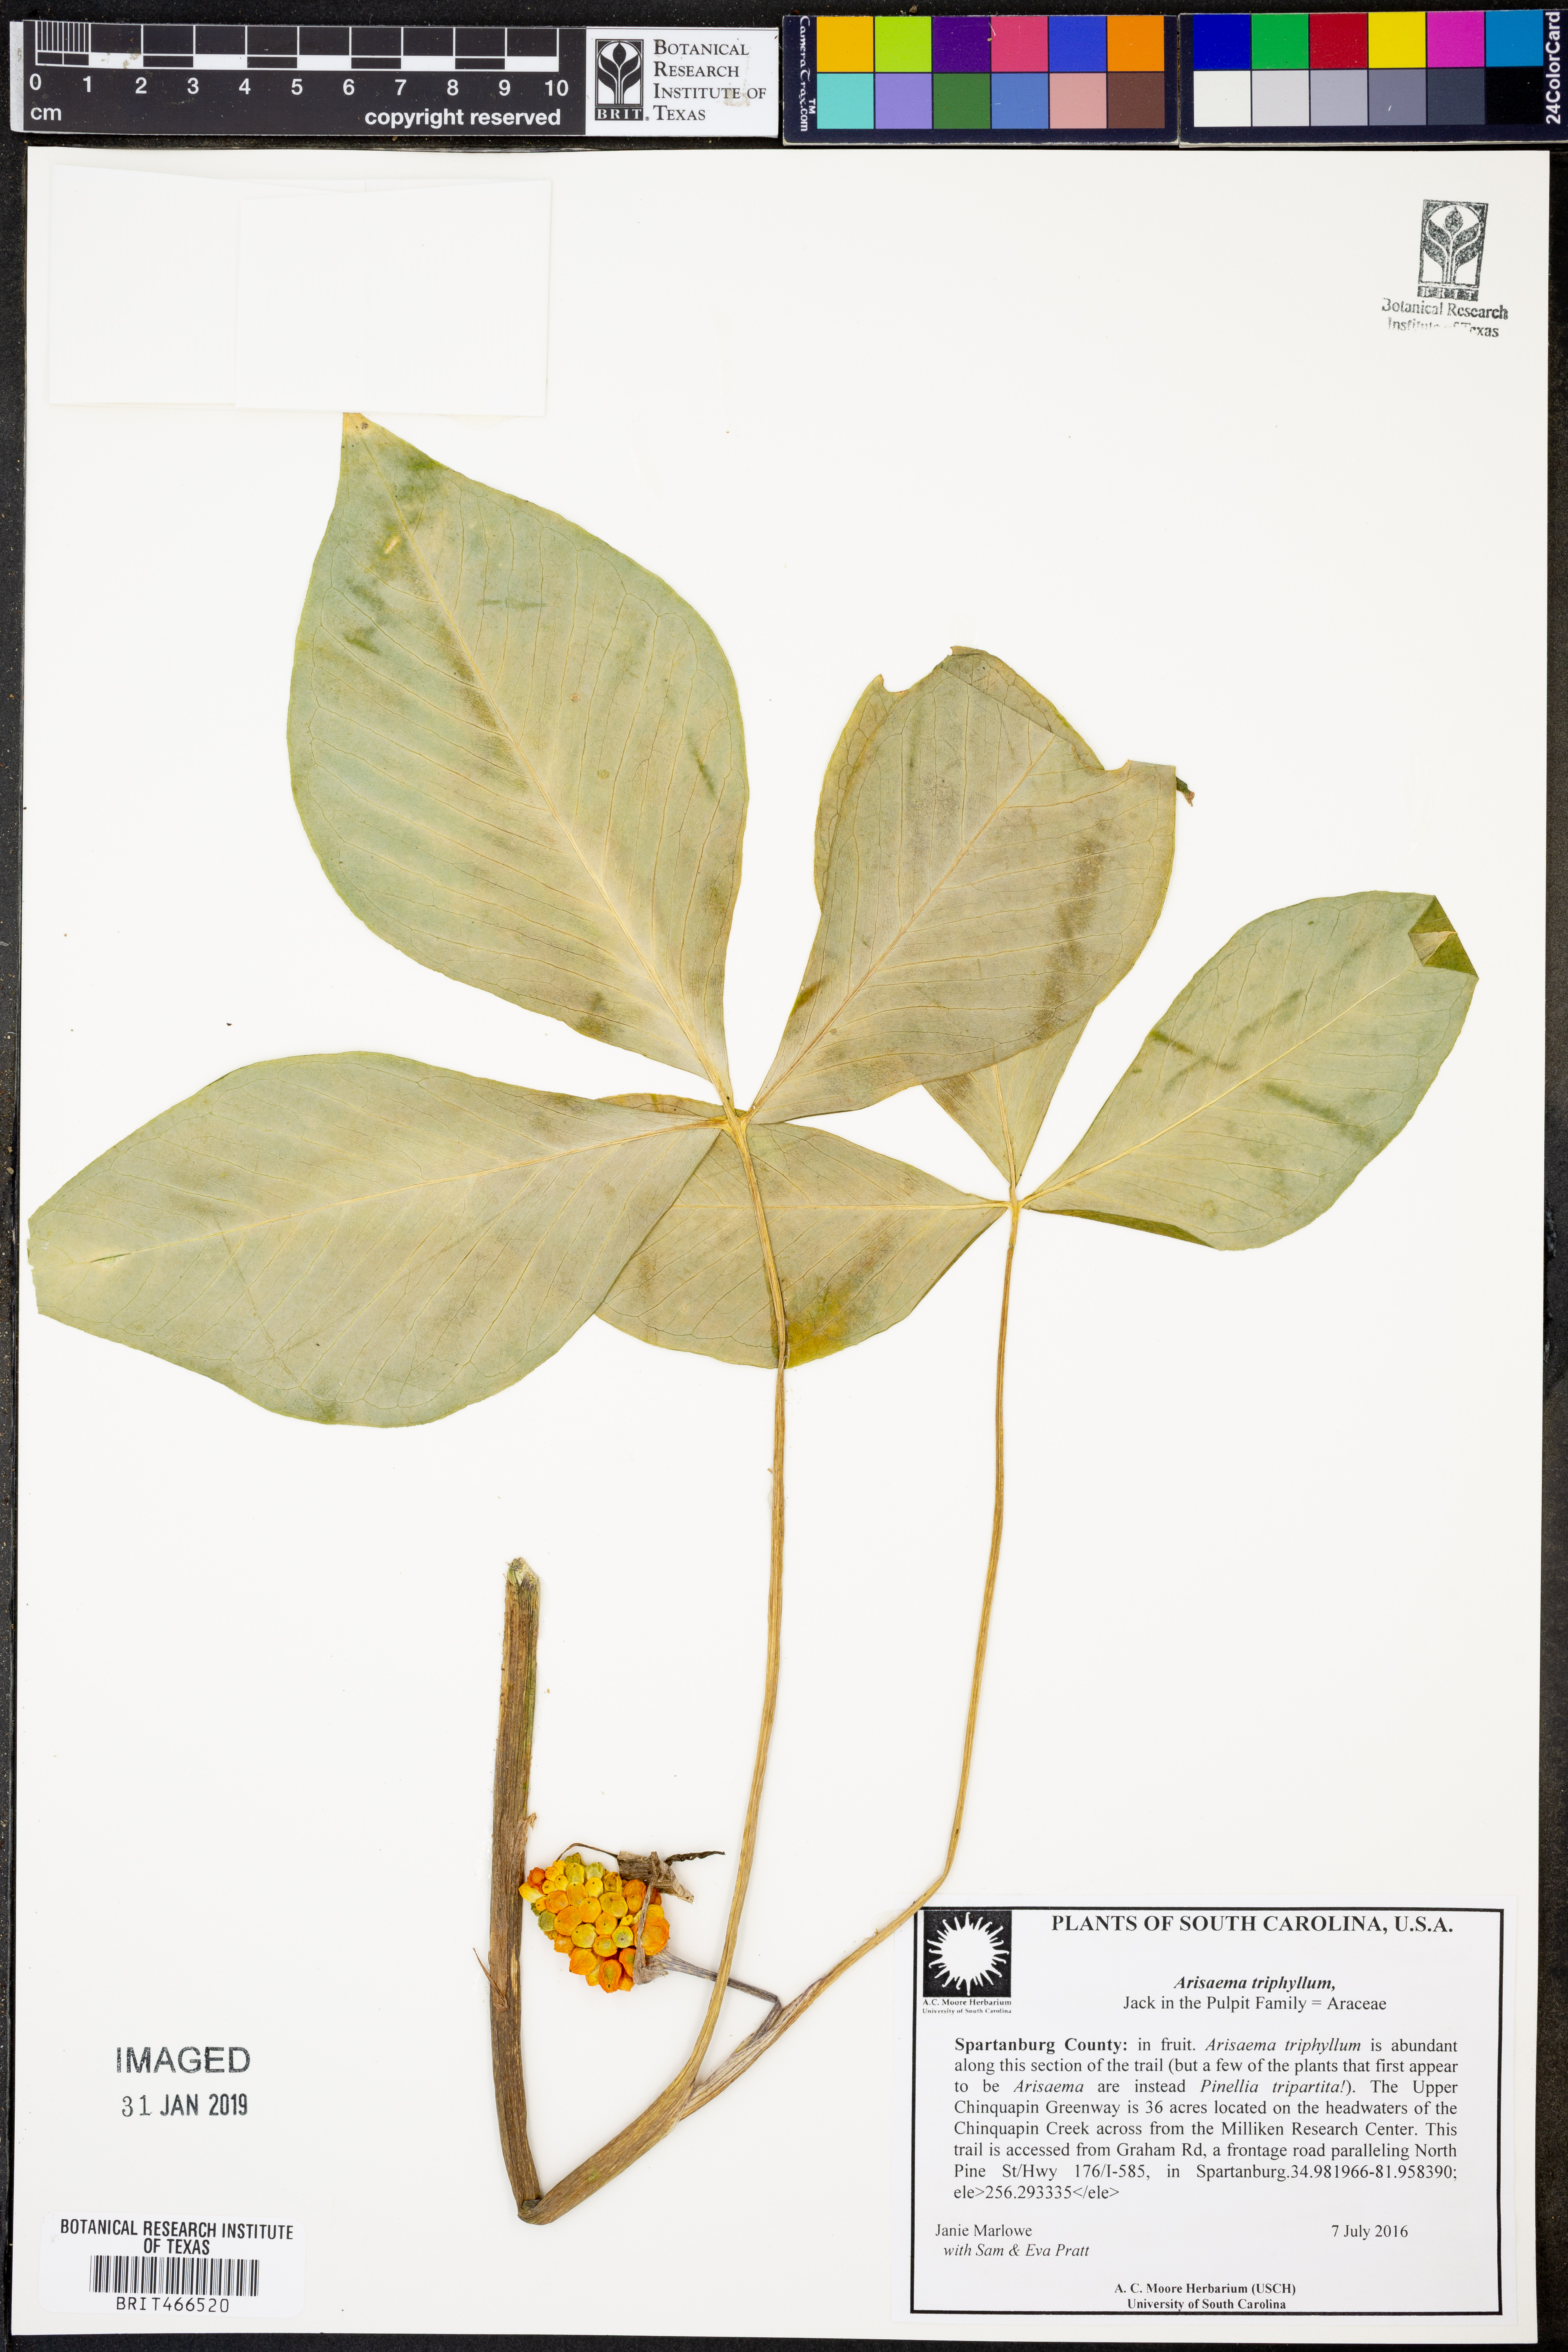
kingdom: Plantae
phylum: Tracheophyta
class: Liliopsida
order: Alismatales
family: Araceae
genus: Arisaema
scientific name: Arisaema triphyllum
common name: Jack-in-the-pulpit
